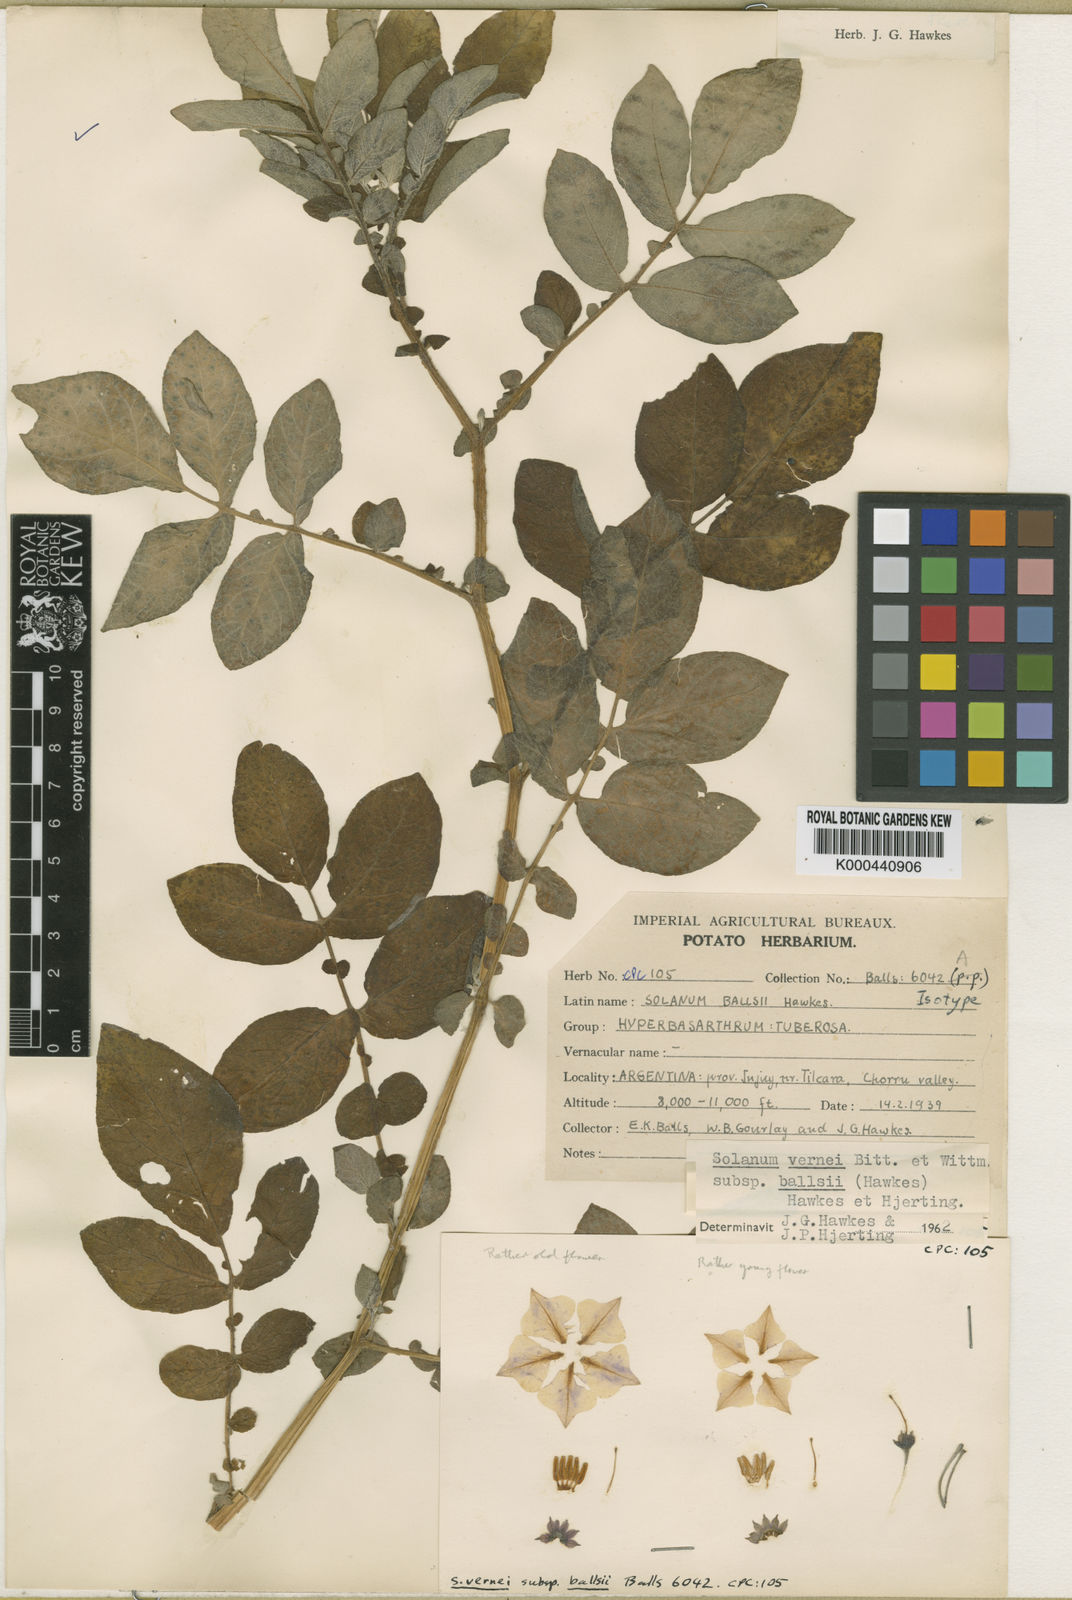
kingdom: Plantae
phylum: Tracheophyta
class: Magnoliopsida
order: Solanales
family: Solanaceae
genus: Solanum
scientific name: Solanum vernei
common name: Purple potato
